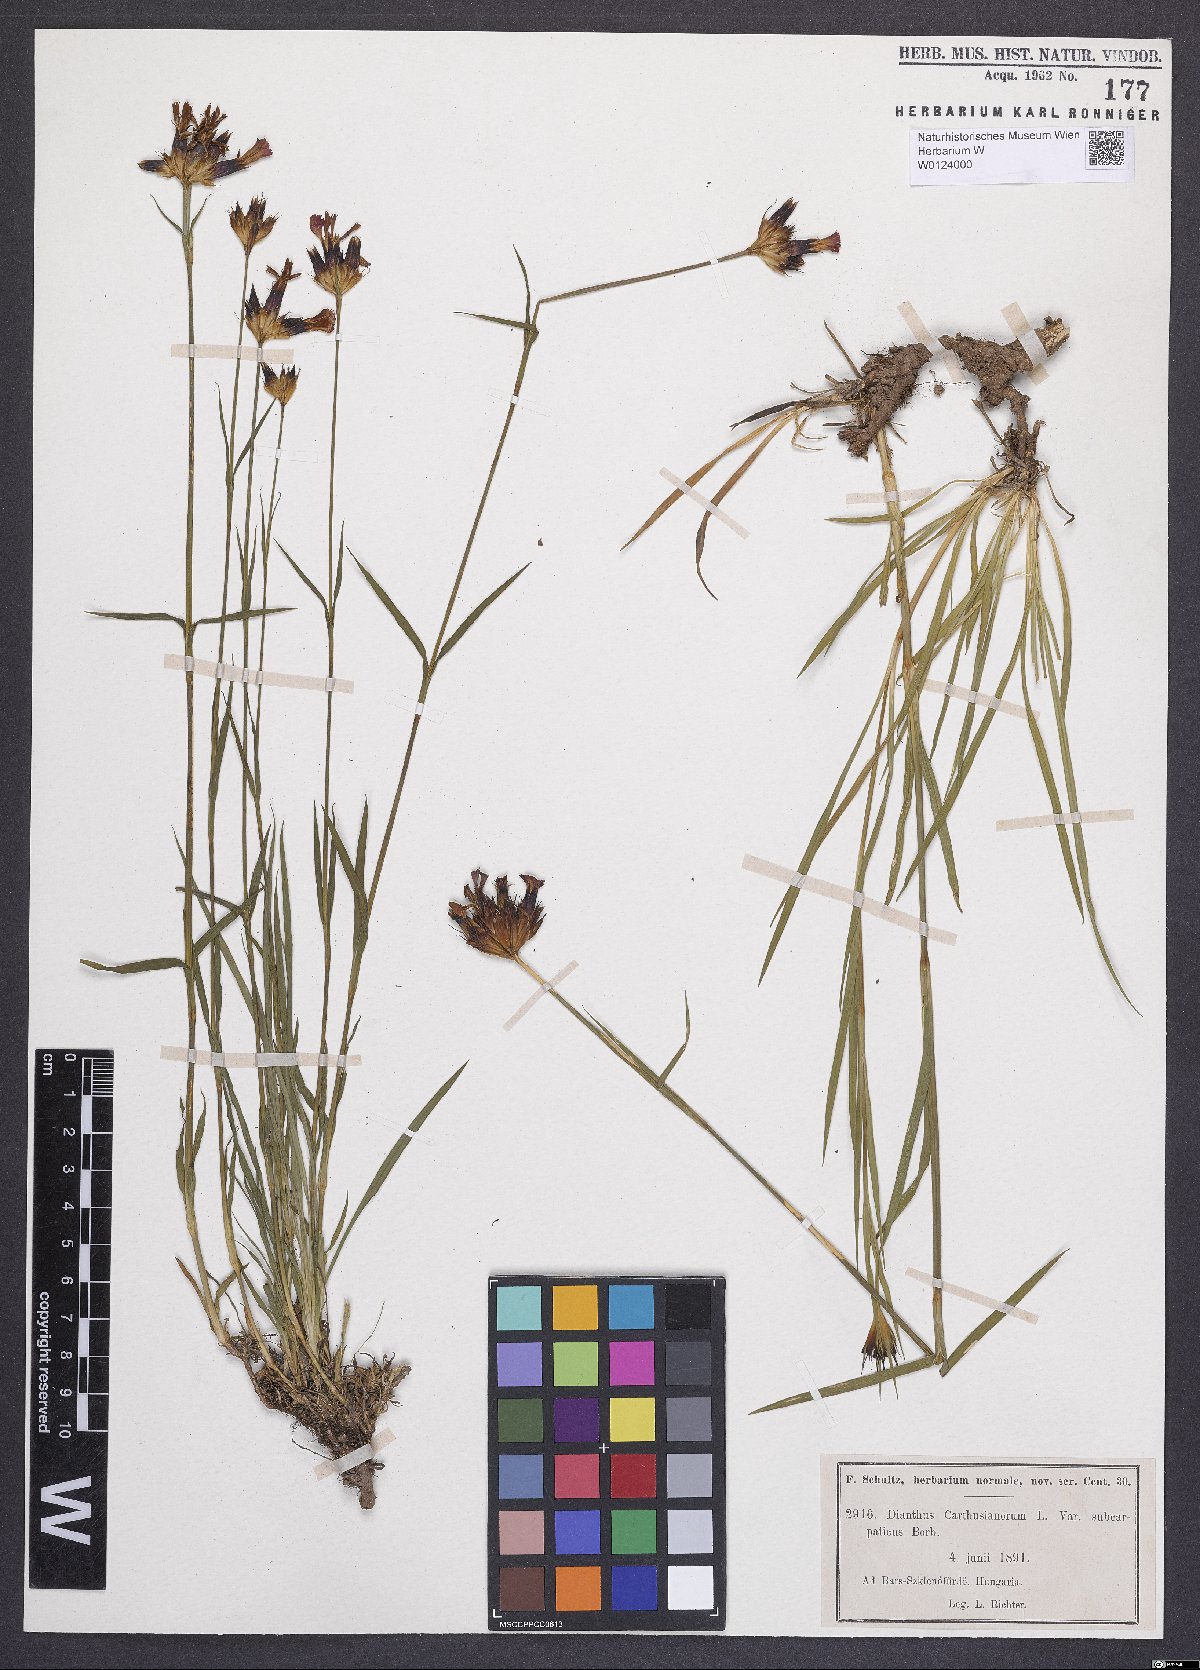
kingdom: Plantae
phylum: Tracheophyta
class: Magnoliopsida
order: Caryophyllales
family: Caryophyllaceae
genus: Dianthus
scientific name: Dianthus carthusianorum
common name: Carthusian pink
